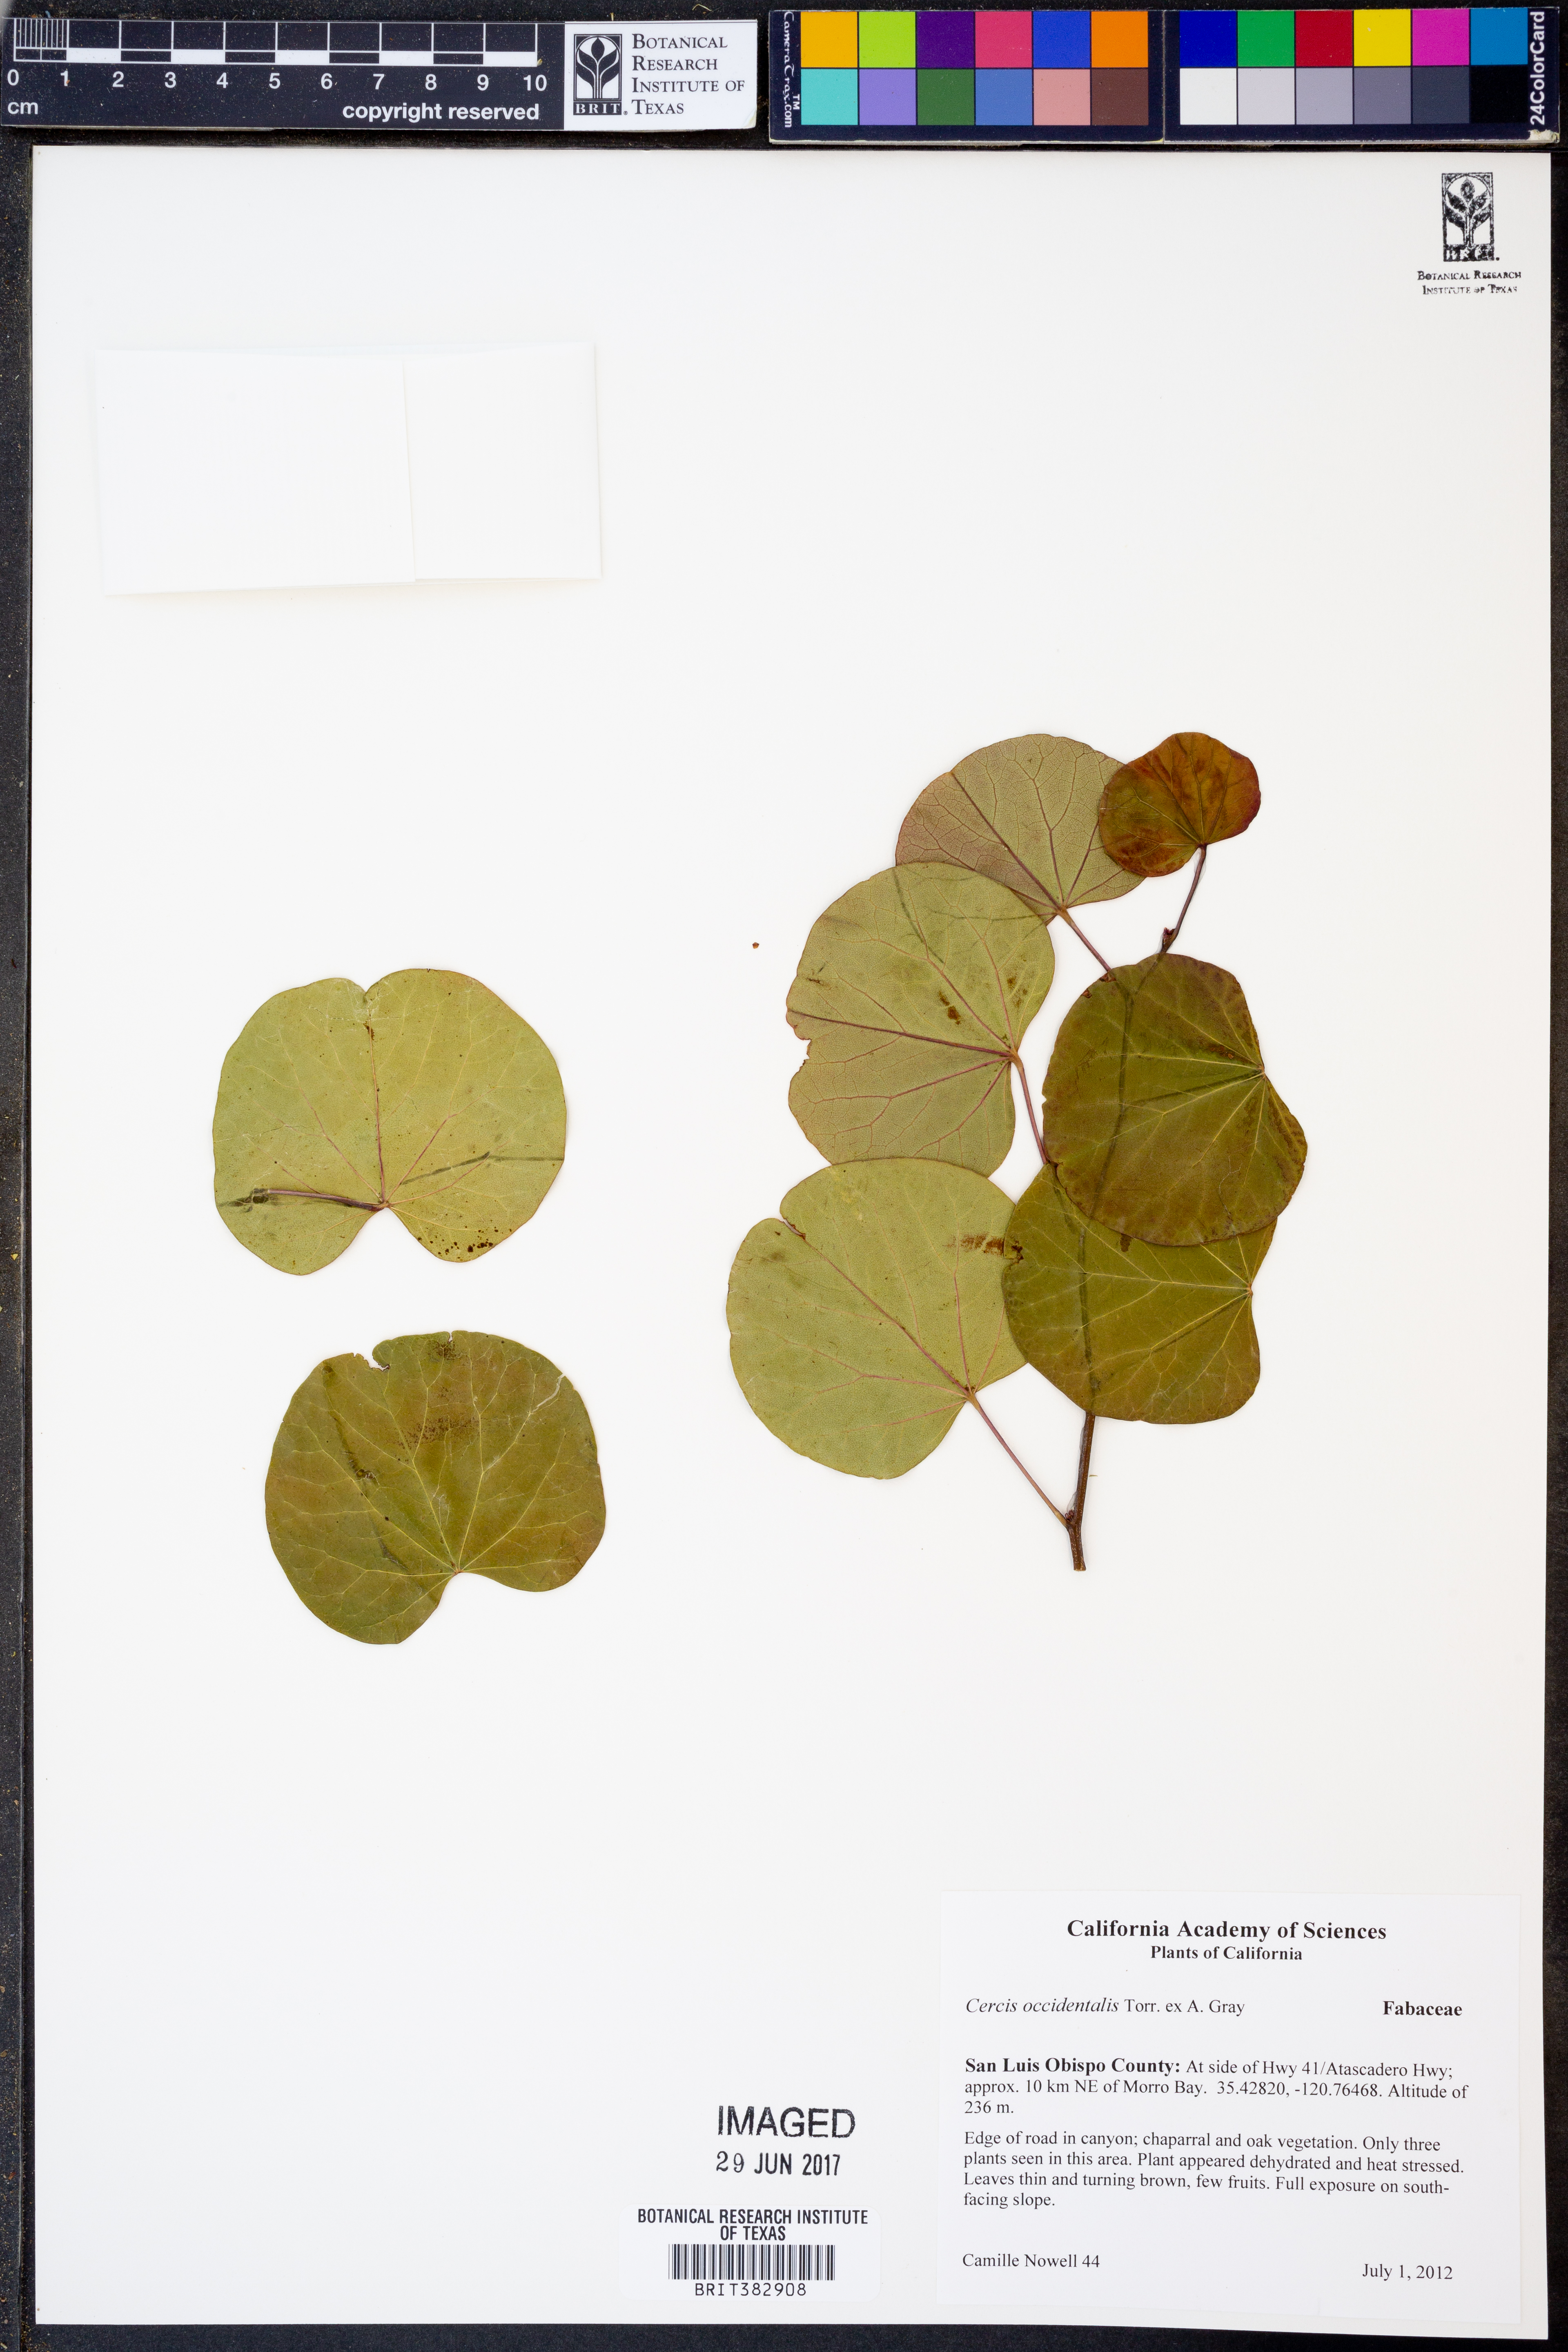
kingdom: Plantae
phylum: Tracheophyta
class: Magnoliopsida
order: Fabales
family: Fabaceae
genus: Cercis
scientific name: Cercis occidentalis
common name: California redbud
